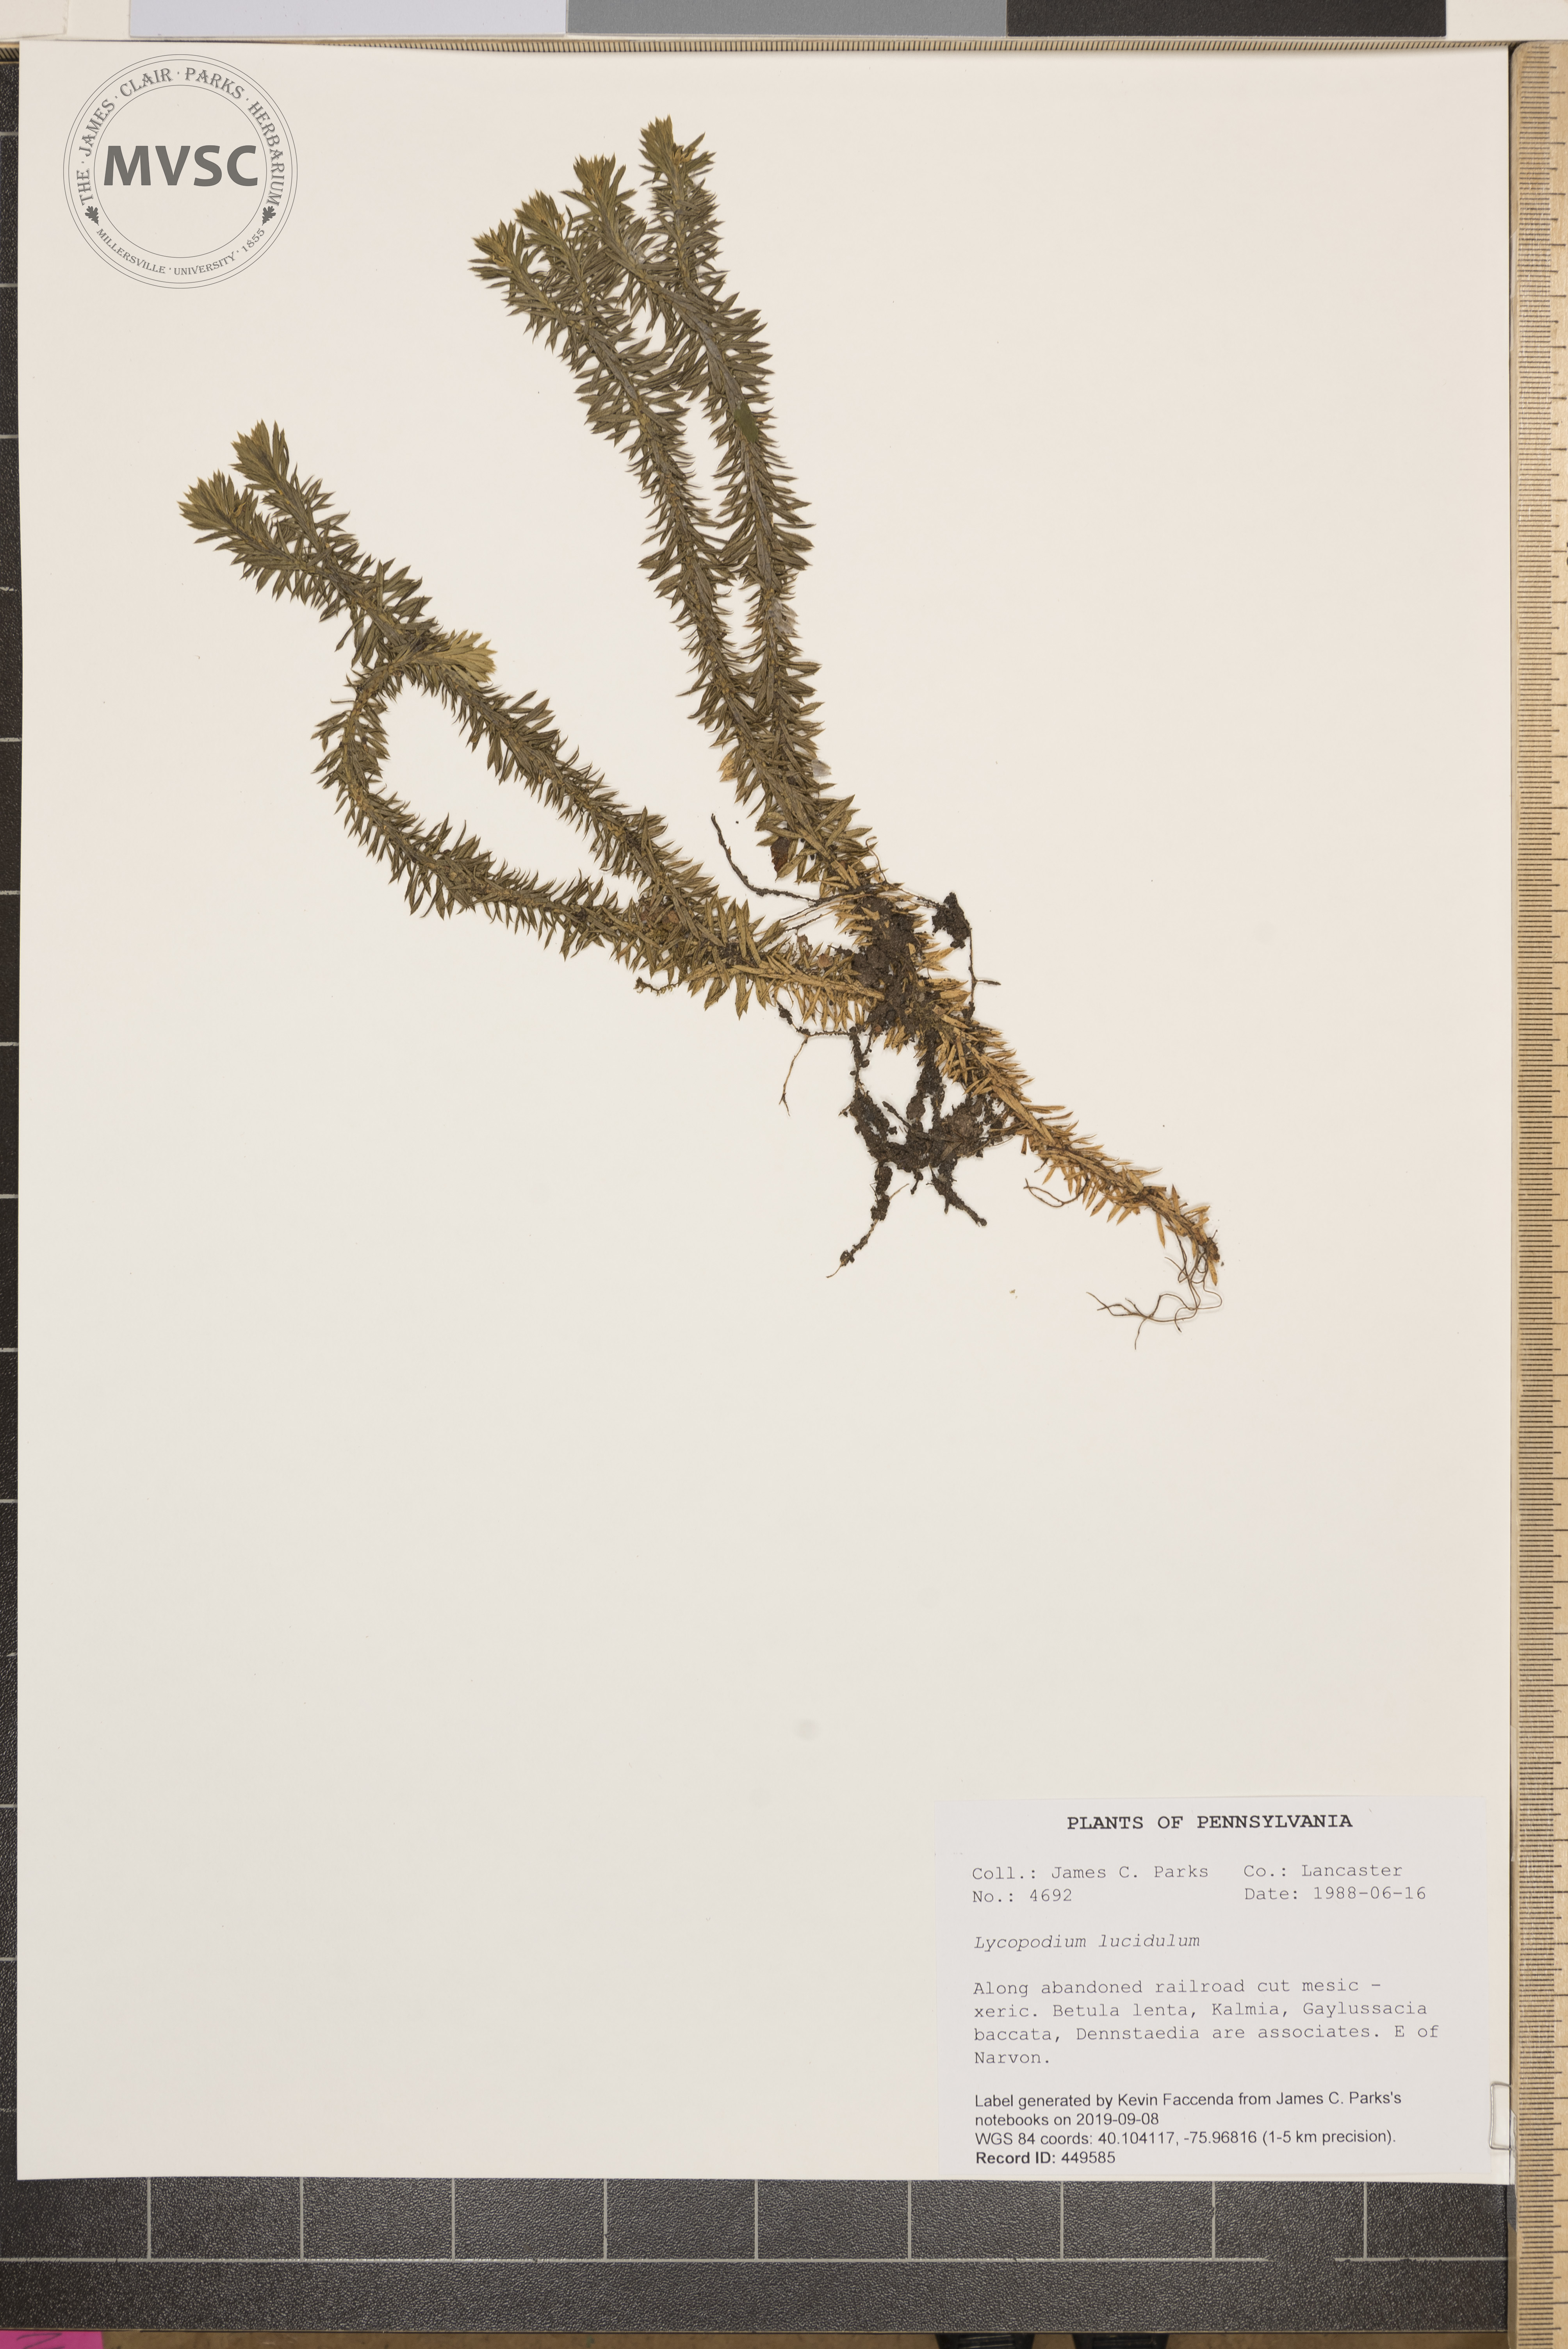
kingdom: Plantae
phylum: Tracheophyta
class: Lycopodiopsida
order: Lycopodiales
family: Lycopodiaceae
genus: Huperzia
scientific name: Huperzia lucidula
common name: Shining clubmoss
